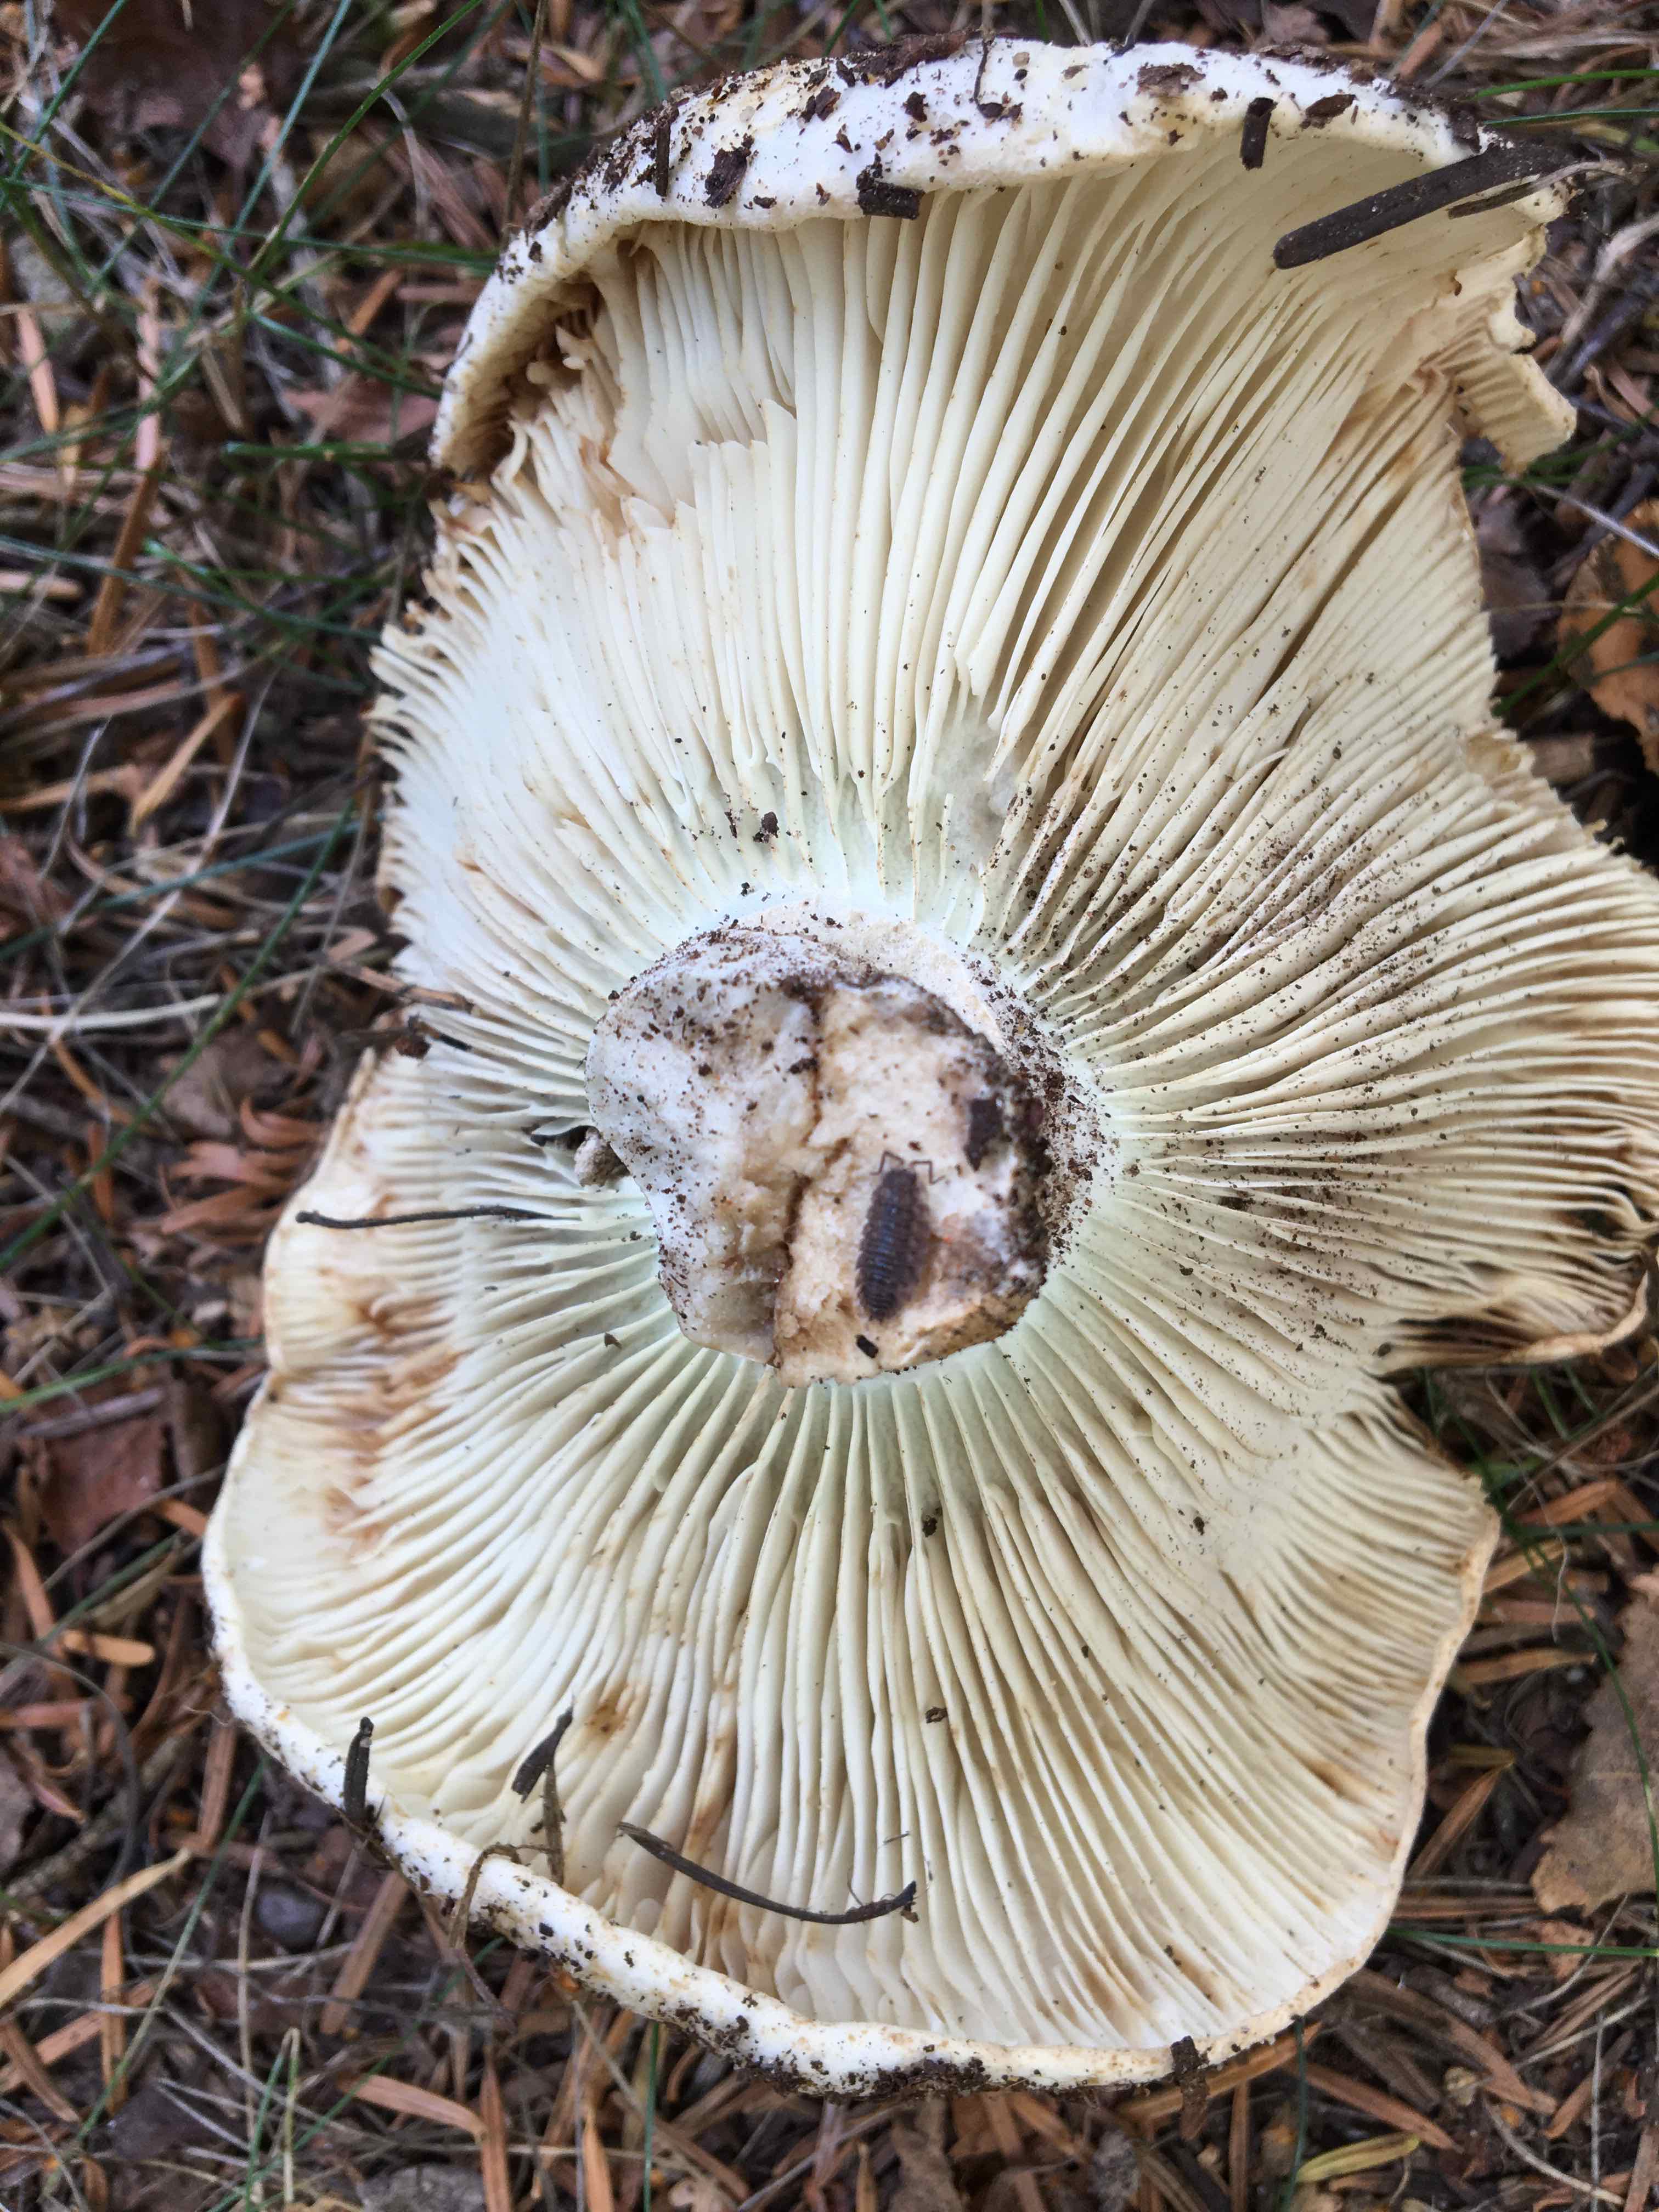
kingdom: Fungi
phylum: Basidiomycota
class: Agaricomycetes
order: Russulales
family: Russulaceae
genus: Russula
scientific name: Russula chloroides
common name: grønhalset tragt-skørhat
